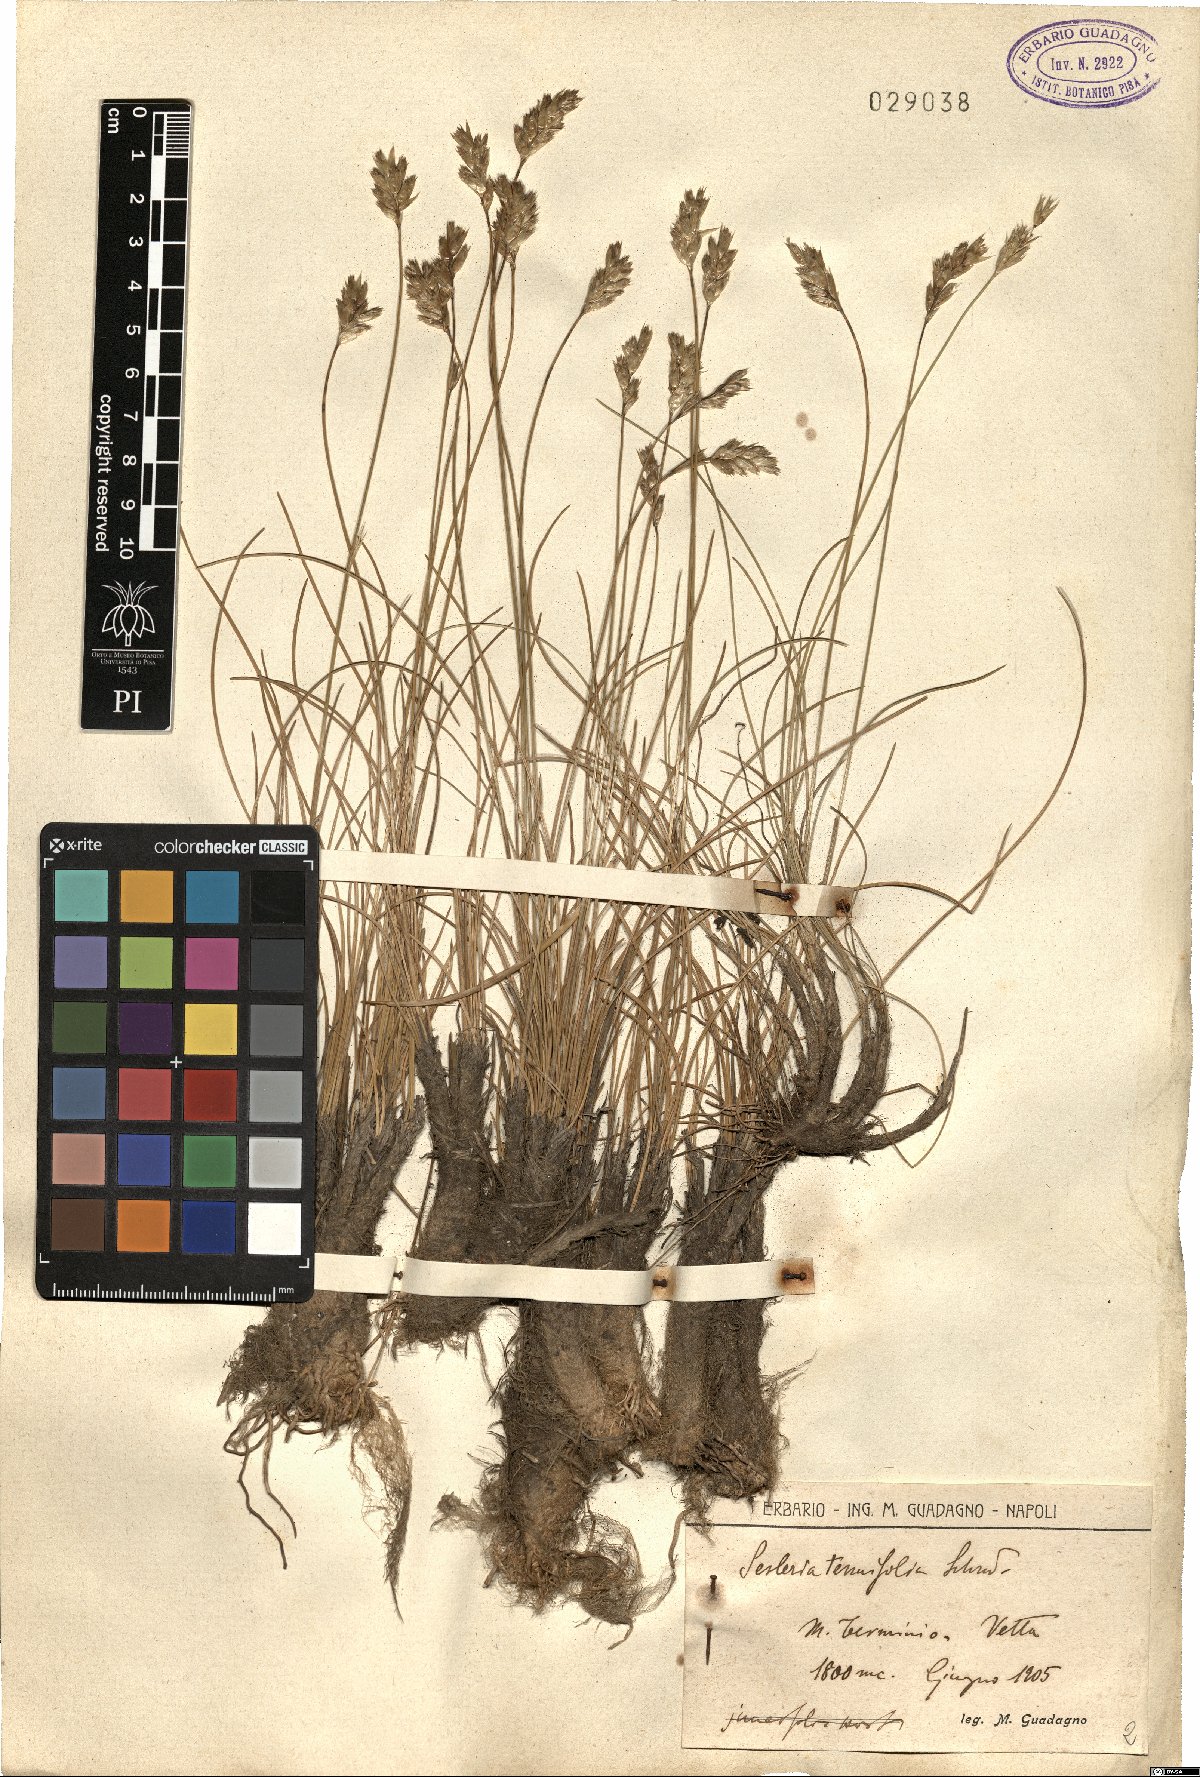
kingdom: Plantae
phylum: Tracheophyta
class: Liliopsida
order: Poales
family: Poaceae
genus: Sesleria
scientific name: Sesleria juncifolia
